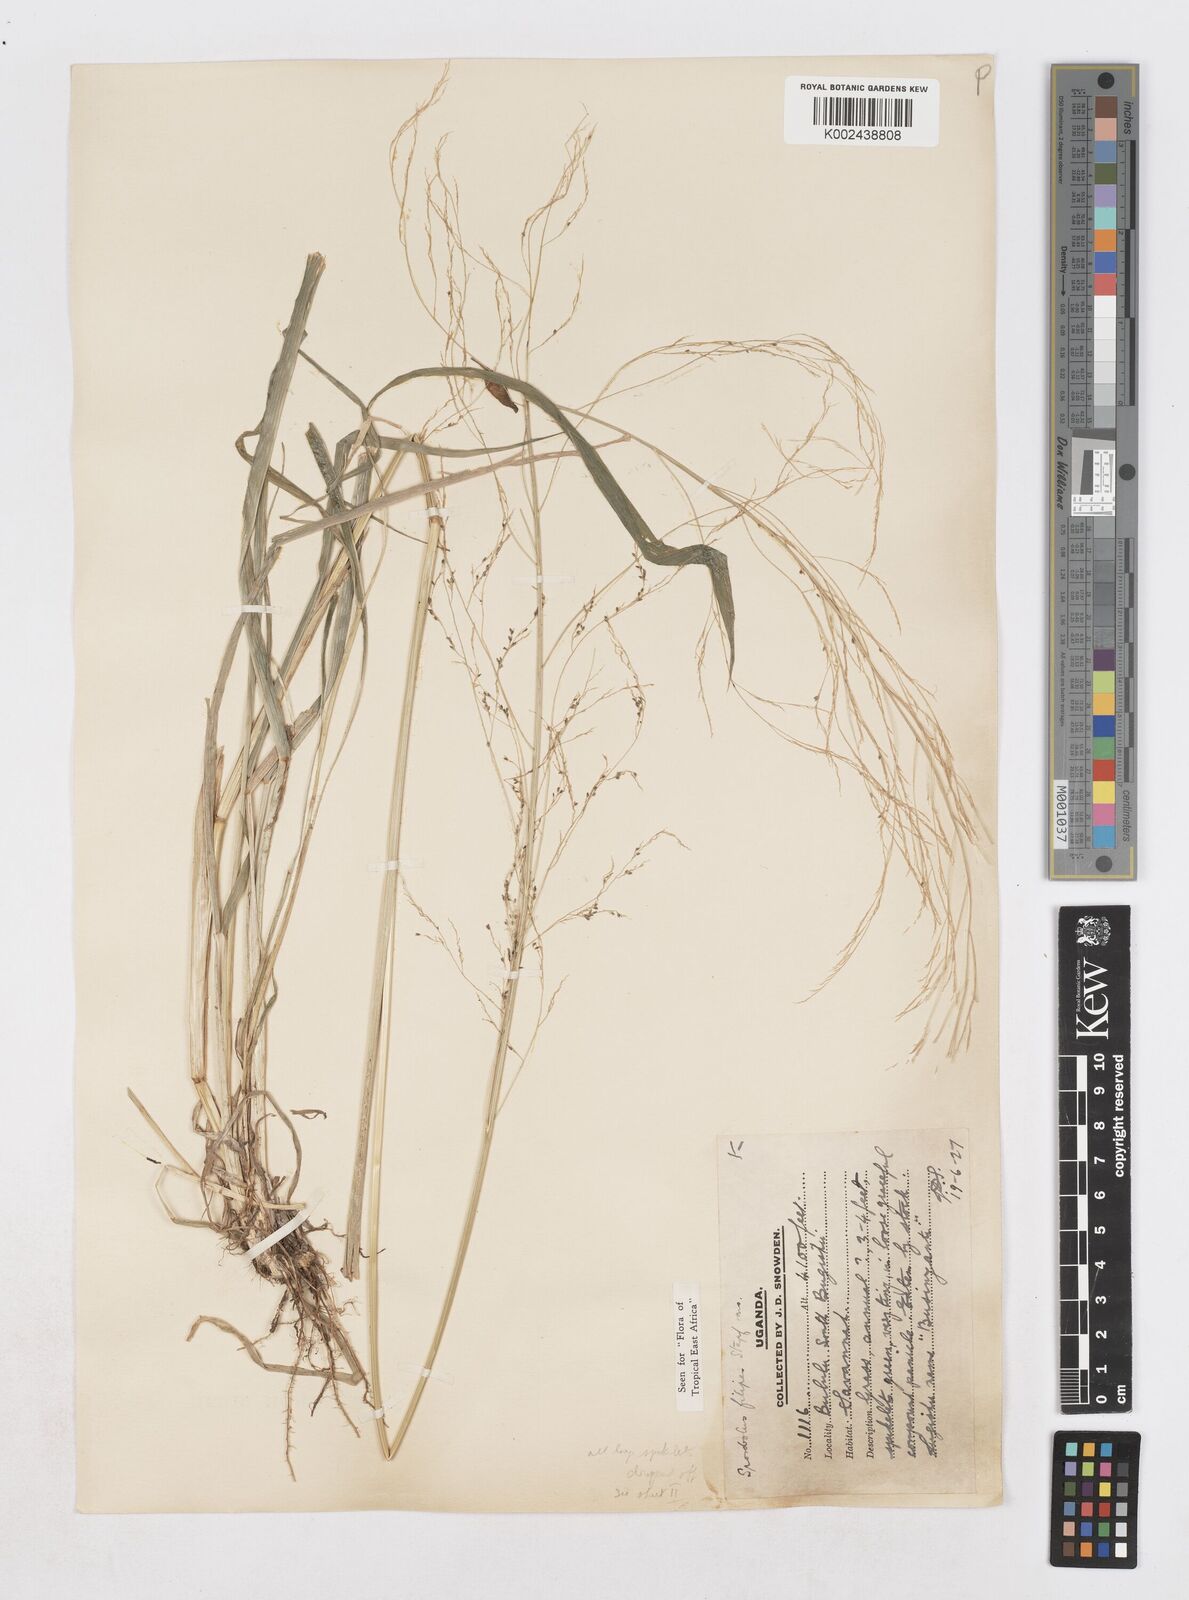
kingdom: Plantae
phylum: Tracheophyta
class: Liliopsida
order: Poales
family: Poaceae
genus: Sporobolus
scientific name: Sporobolus agrostoides
